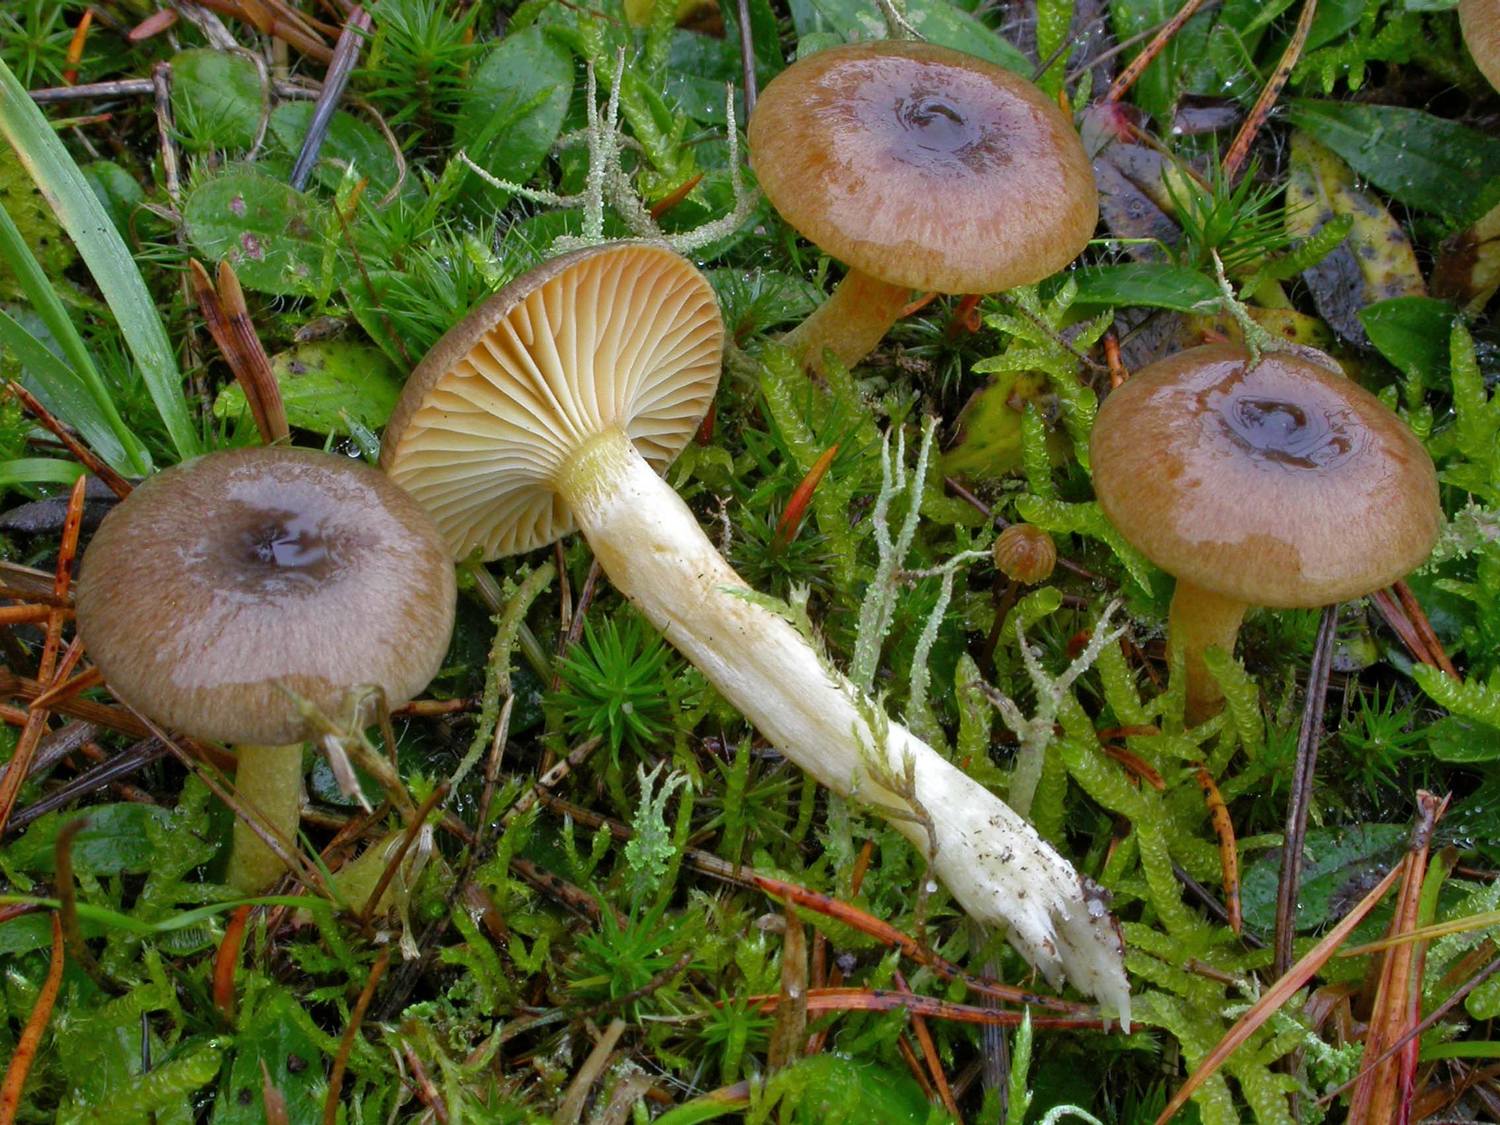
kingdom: Fungi
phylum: Basidiomycota
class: Agaricomycetes
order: Agaricales
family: Hygrophoraceae
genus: Hygrophorus
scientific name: Hygrophorus hypothejus
